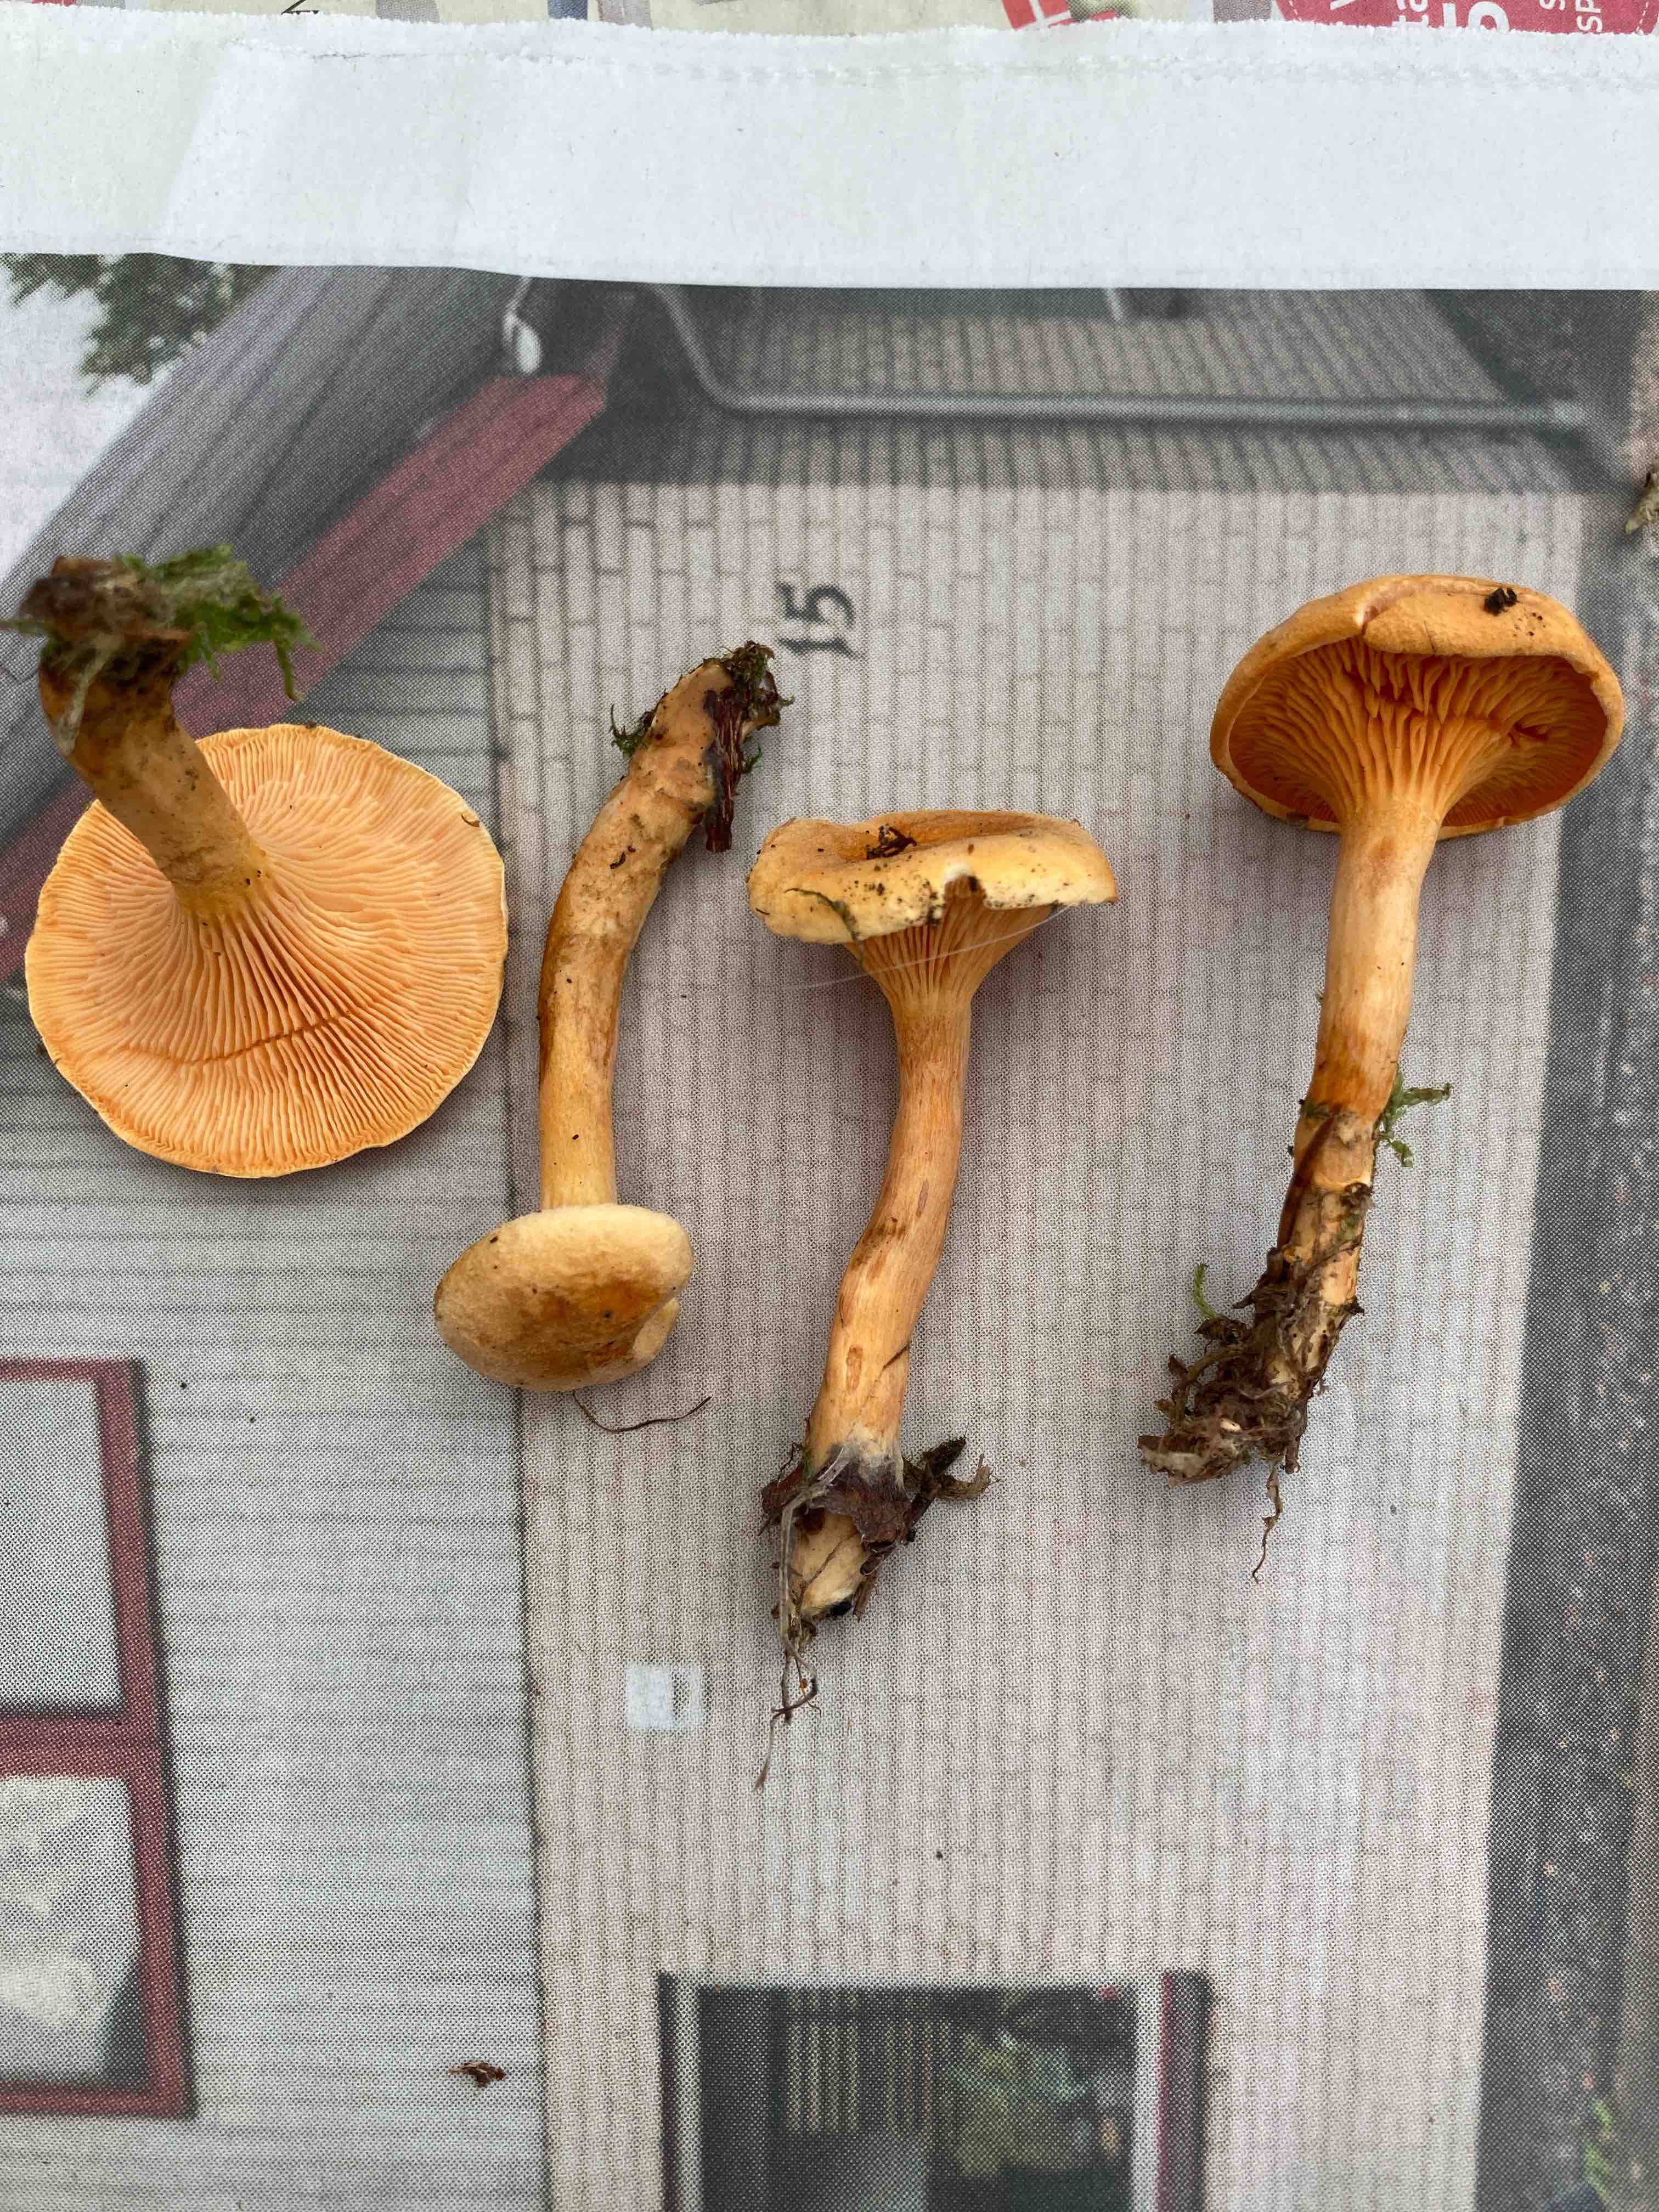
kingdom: Fungi
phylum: Basidiomycota
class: Agaricomycetes
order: Boletales
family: Hygrophoropsidaceae
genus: Hygrophoropsis
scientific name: Hygrophoropsis aurantiaca
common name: almindelig orangekantarel
